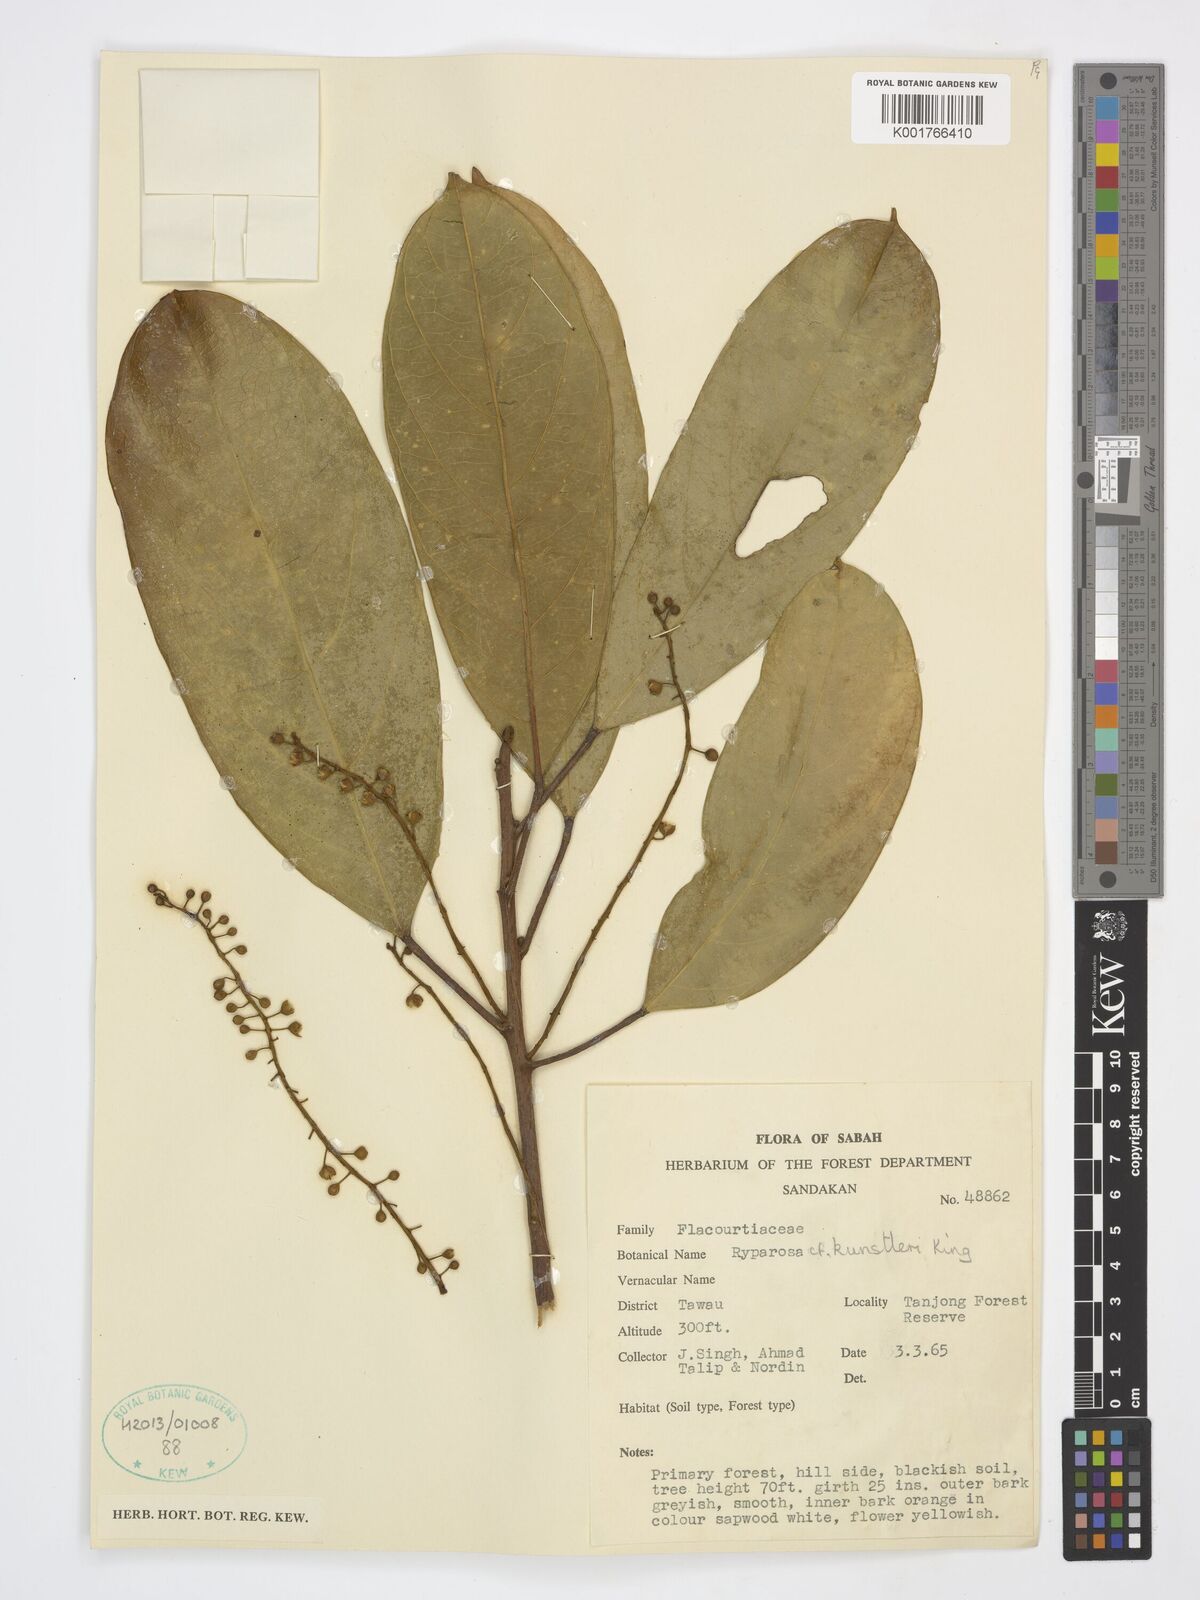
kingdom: Plantae
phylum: Tracheophyta
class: Magnoliopsida
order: Malpighiales
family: Achariaceae
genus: Ryparosa
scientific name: Ryparosa kunstleri
